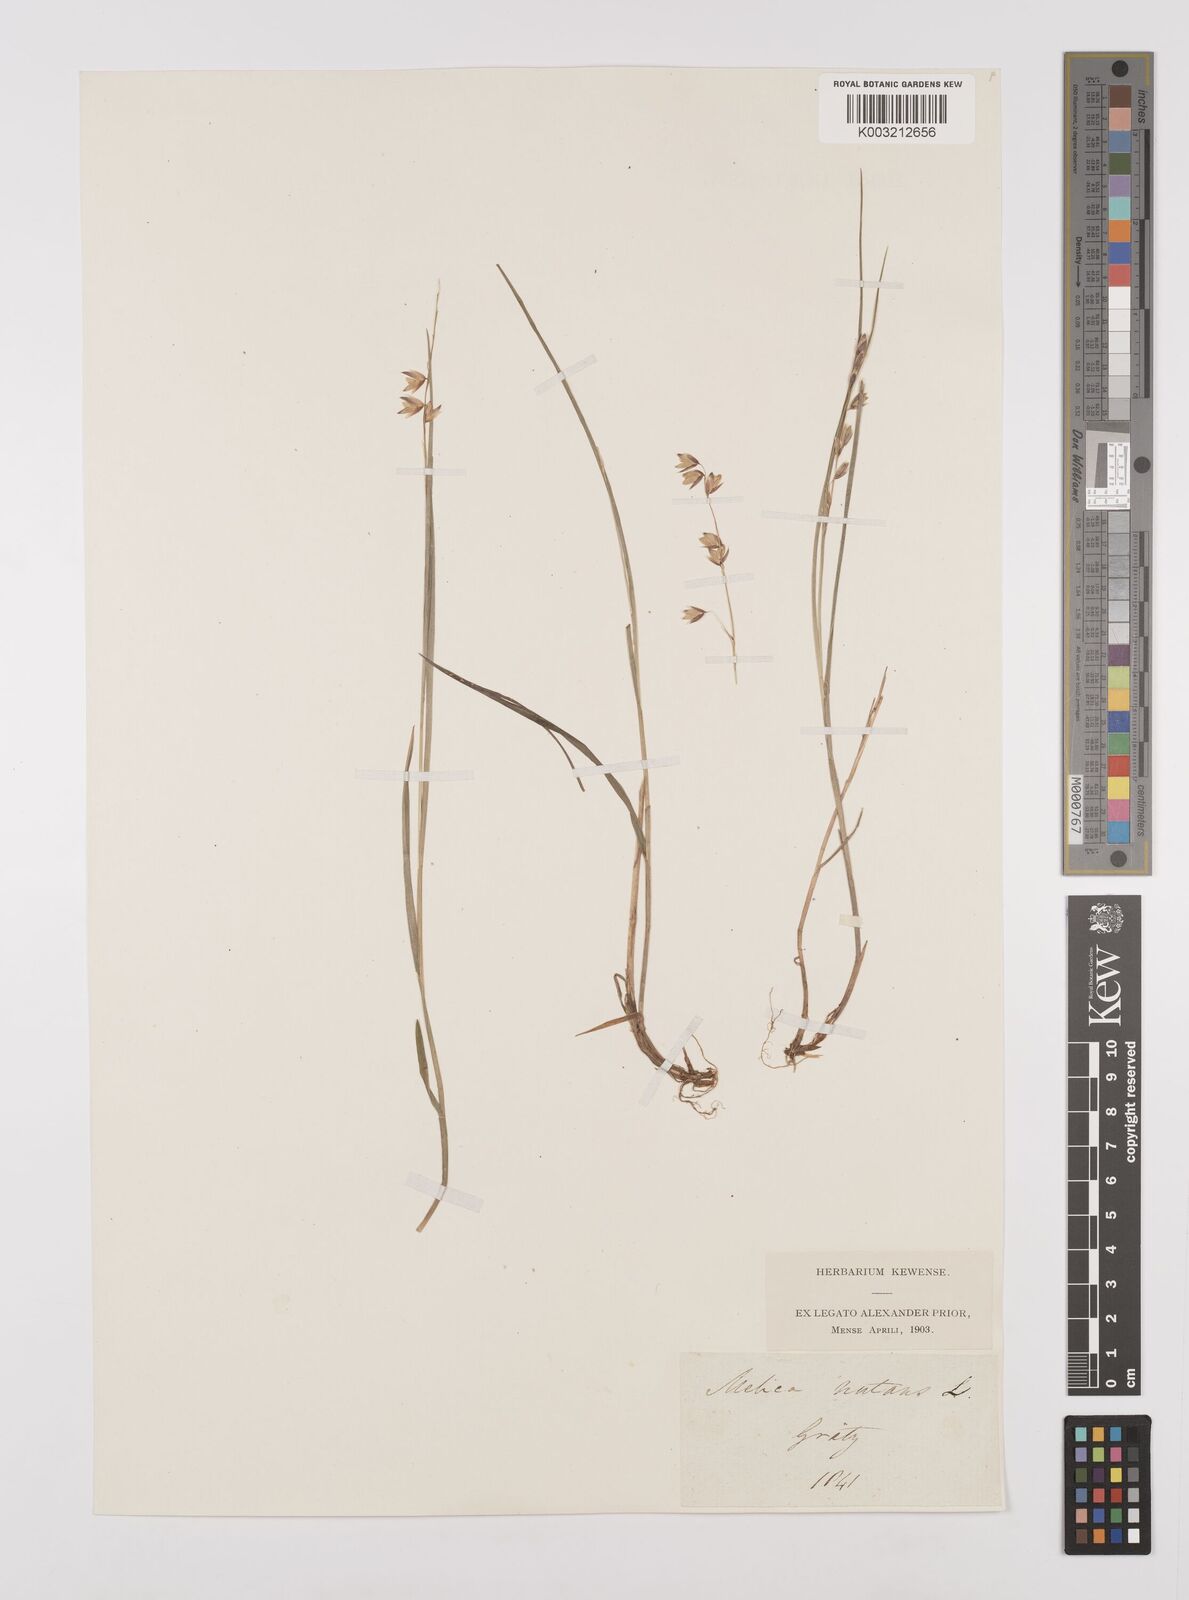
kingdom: Plantae
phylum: Tracheophyta
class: Liliopsida
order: Poales
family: Poaceae
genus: Melica
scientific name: Melica
